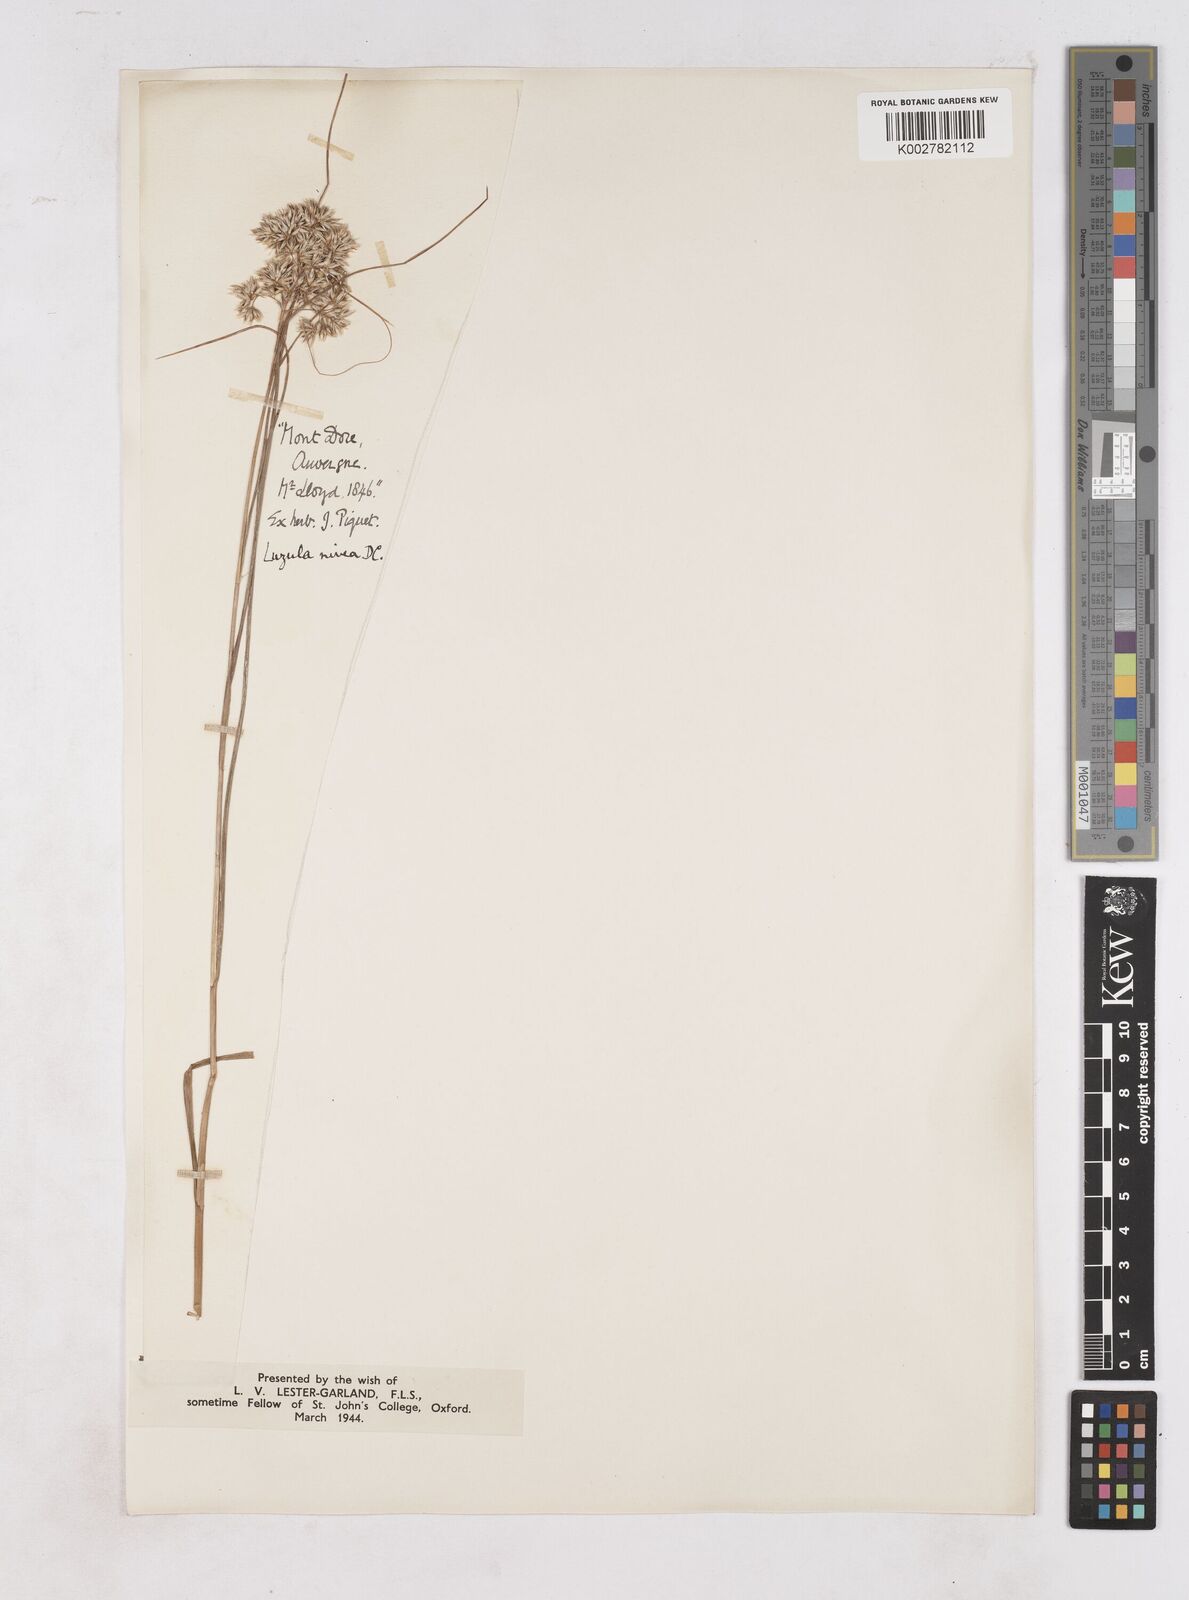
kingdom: Plantae
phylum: Tracheophyta
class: Liliopsida
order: Poales
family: Juncaceae
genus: Luzula
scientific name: Luzula nivea
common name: Snow-white wood-rush
